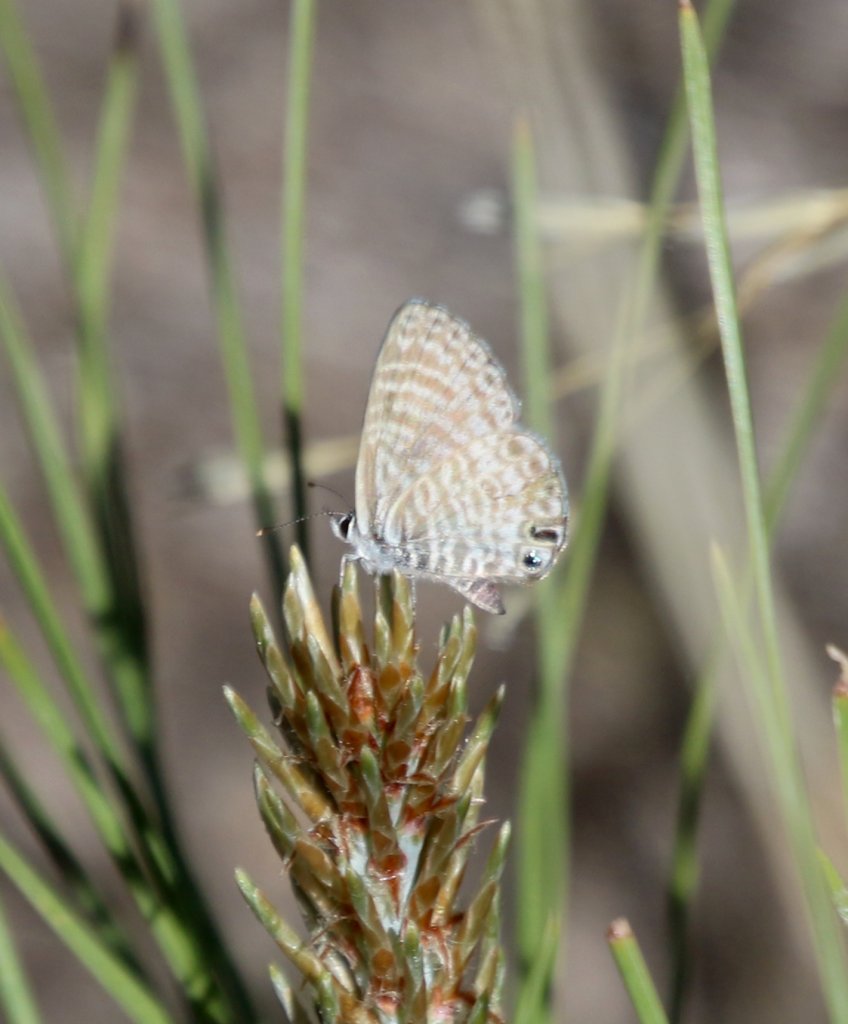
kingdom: Animalia
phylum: Arthropoda
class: Insecta
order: Lepidoptera
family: Lycaenidae
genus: Leptotes
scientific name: Leptotes marina
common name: Marine Blue
